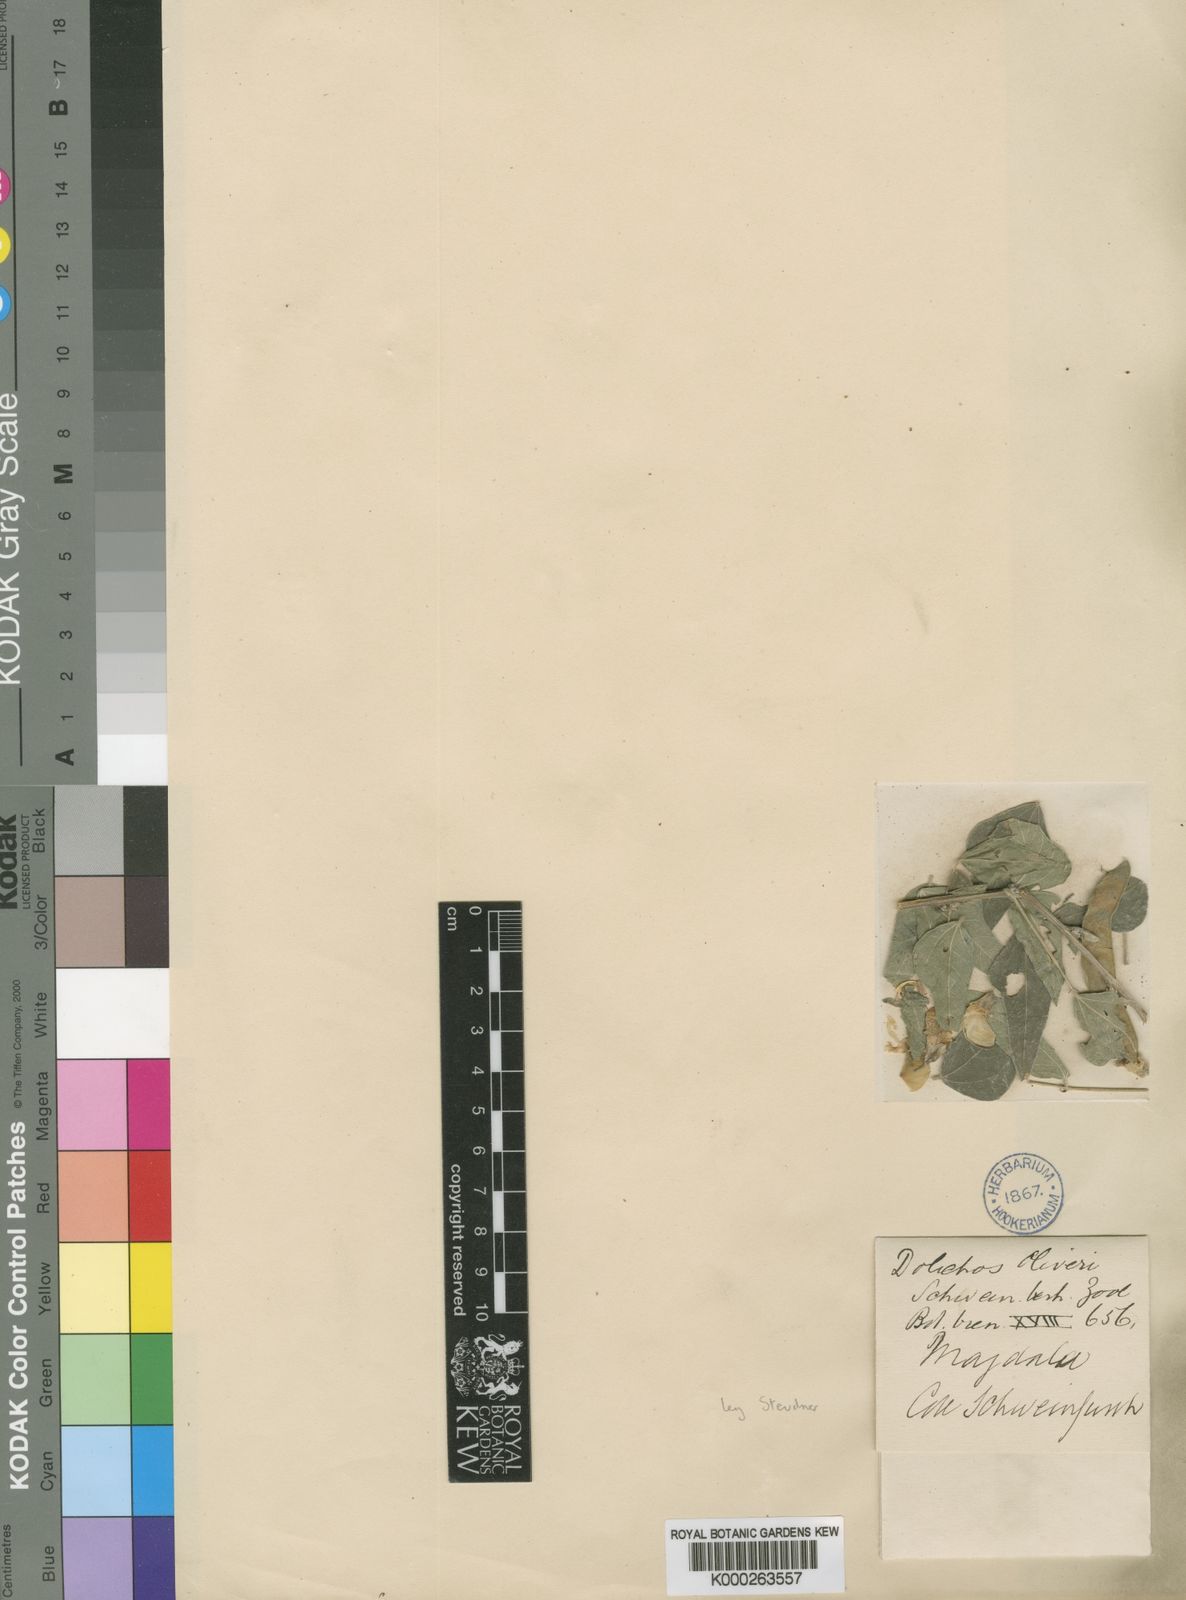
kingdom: Plantae
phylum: Tracheophyta
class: Magnoliopsida
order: Fabales
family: Fabaceae
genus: Dolichos
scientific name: Dolichos
